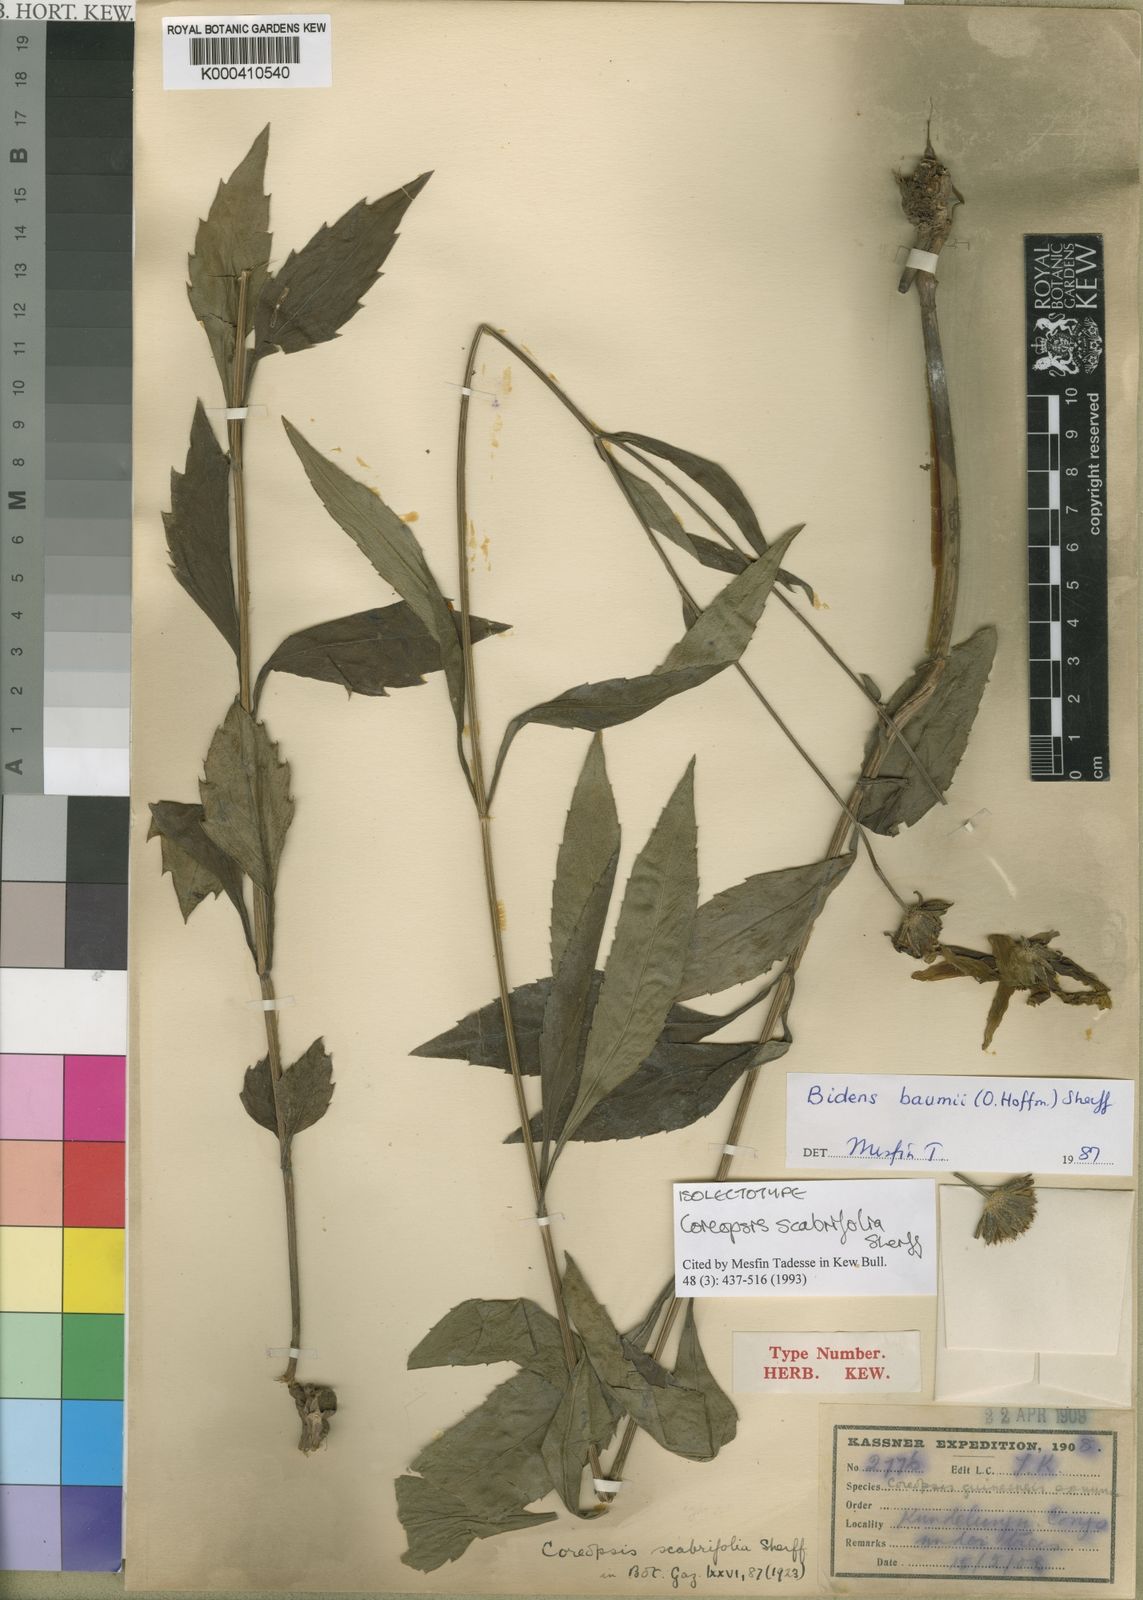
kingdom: Plantae
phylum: Tracheophyta
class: Magnoliopsida
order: Asterales
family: Asteraceae
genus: Bidens
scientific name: Bidens baumii
